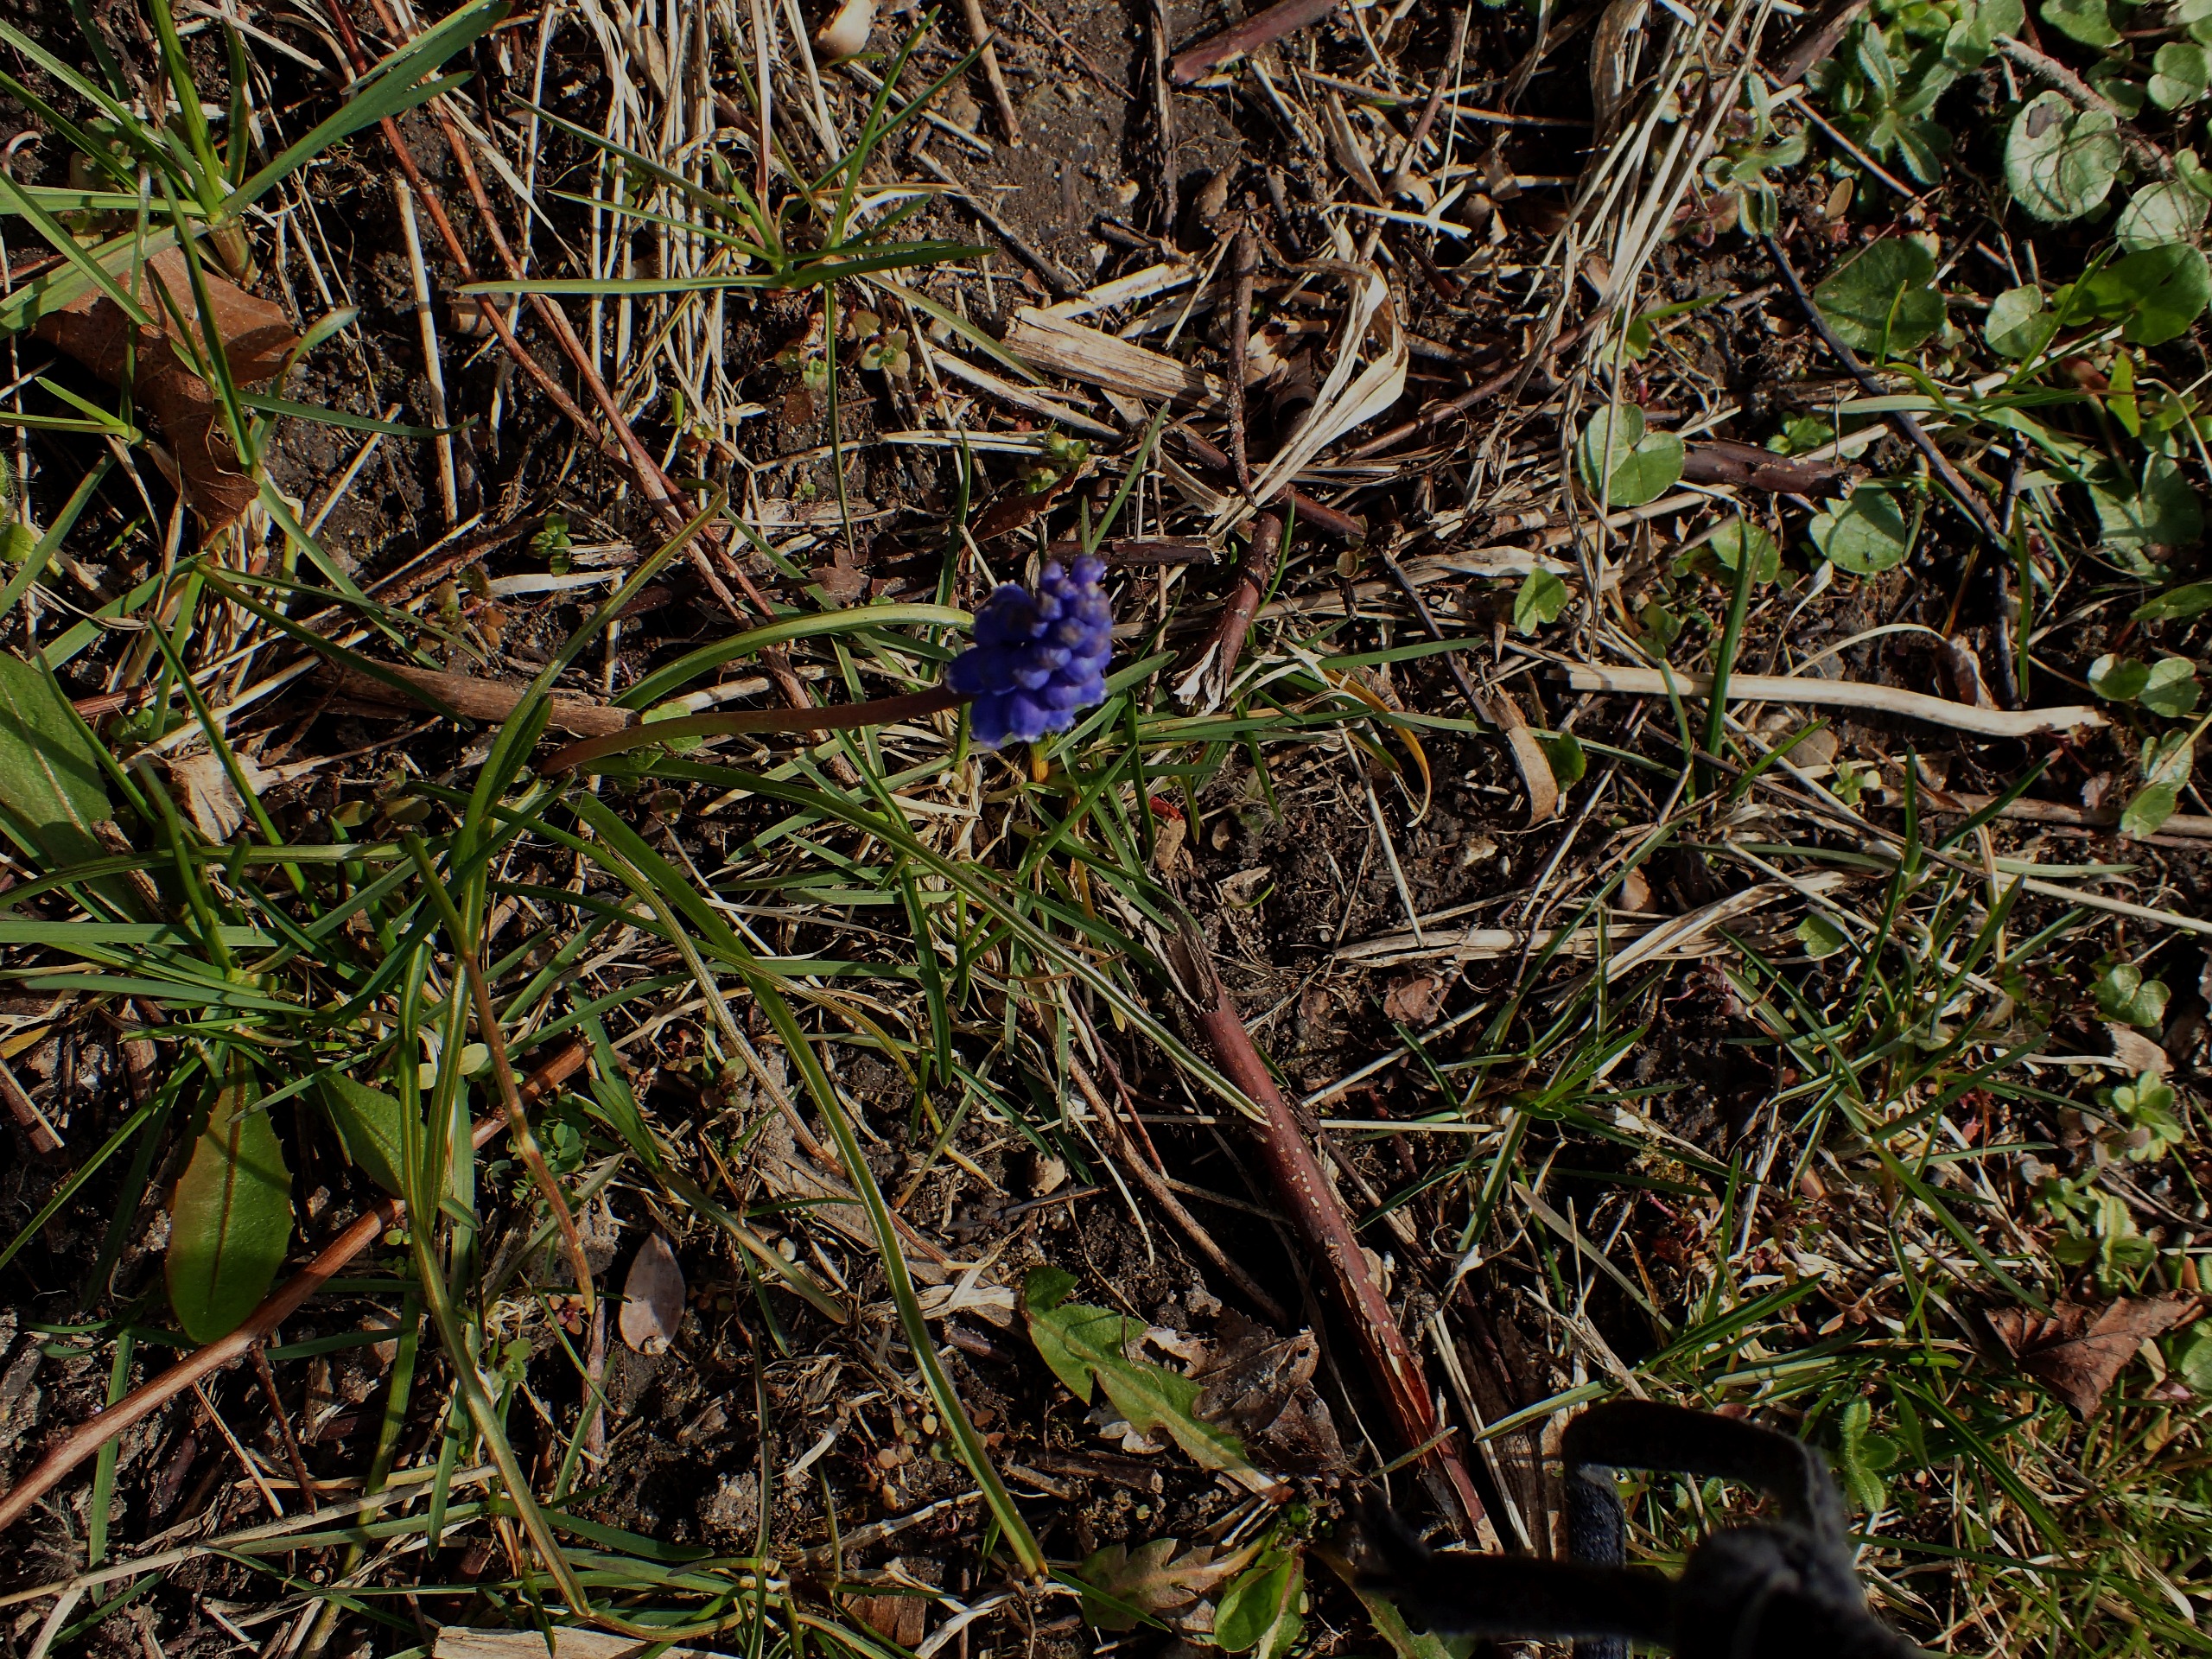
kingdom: Plantae
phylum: Tracheophyta
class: Liliopsida
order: Asparagales
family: Asparagaceae
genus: Muscari
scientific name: Muscari botryoides
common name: Perlehyacint
